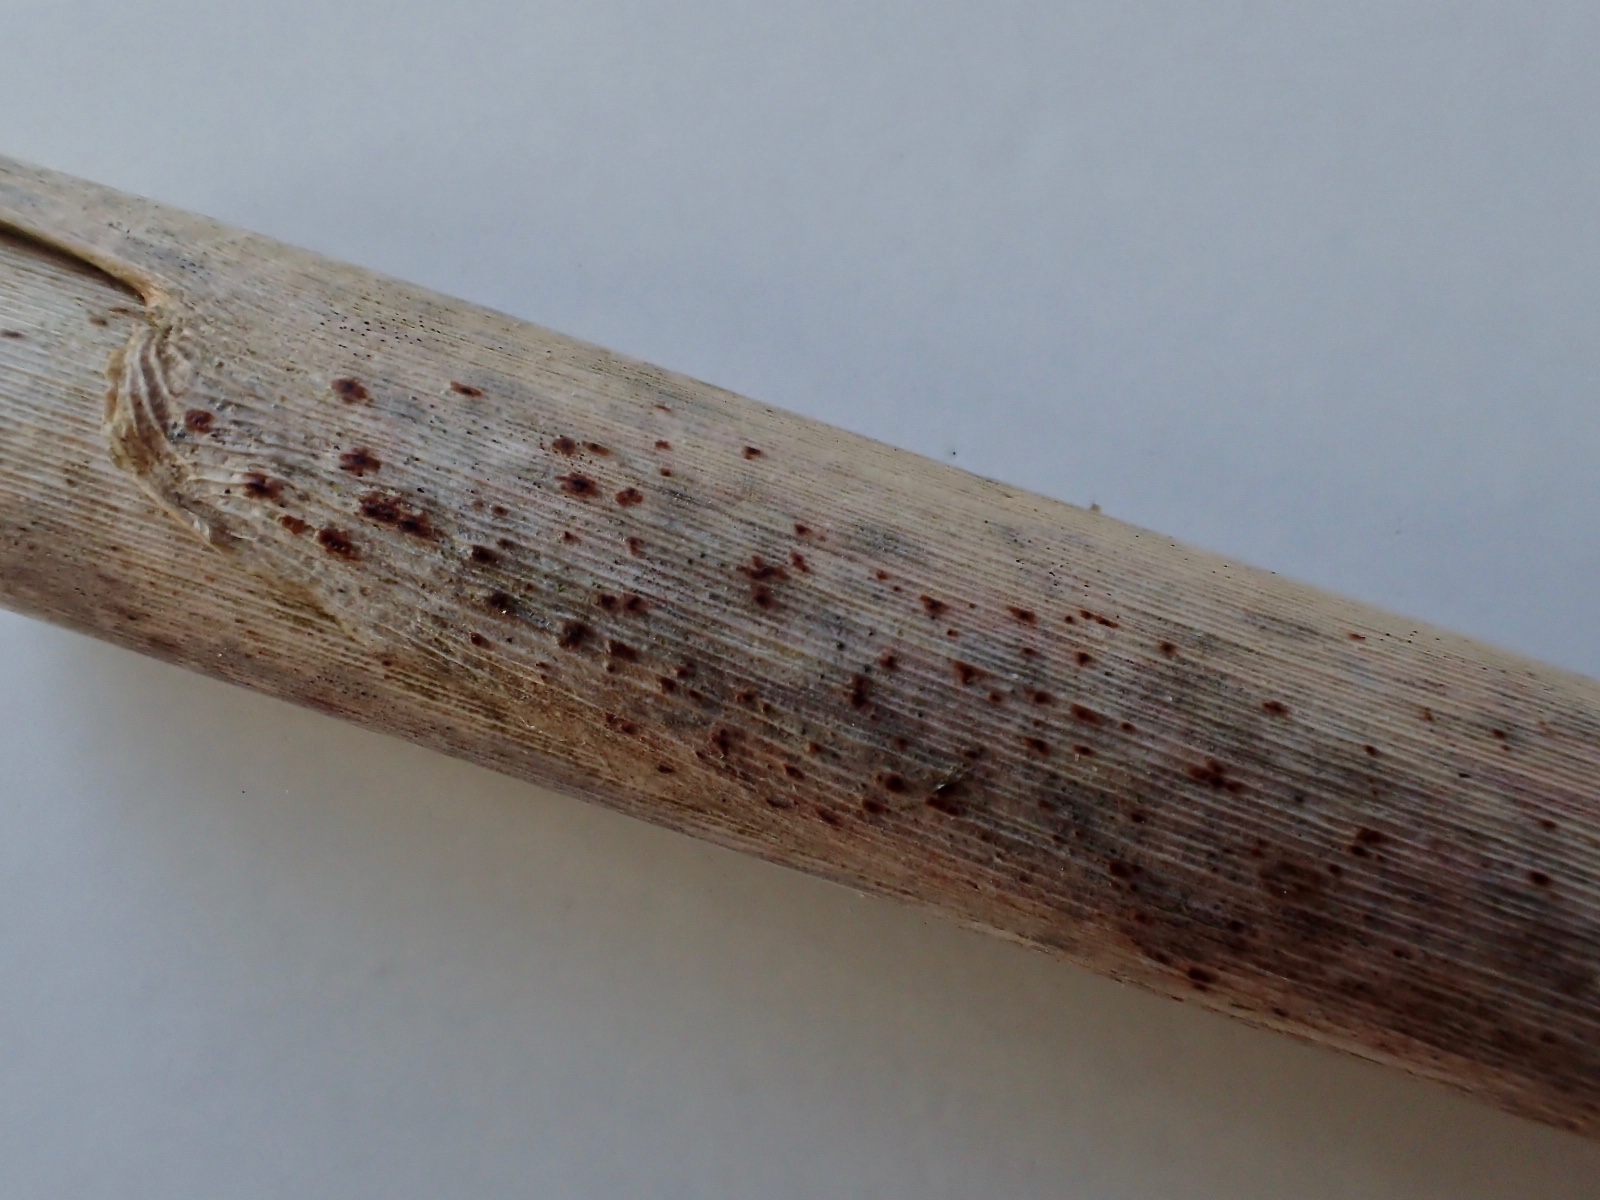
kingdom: Fungi
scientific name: Fungi
